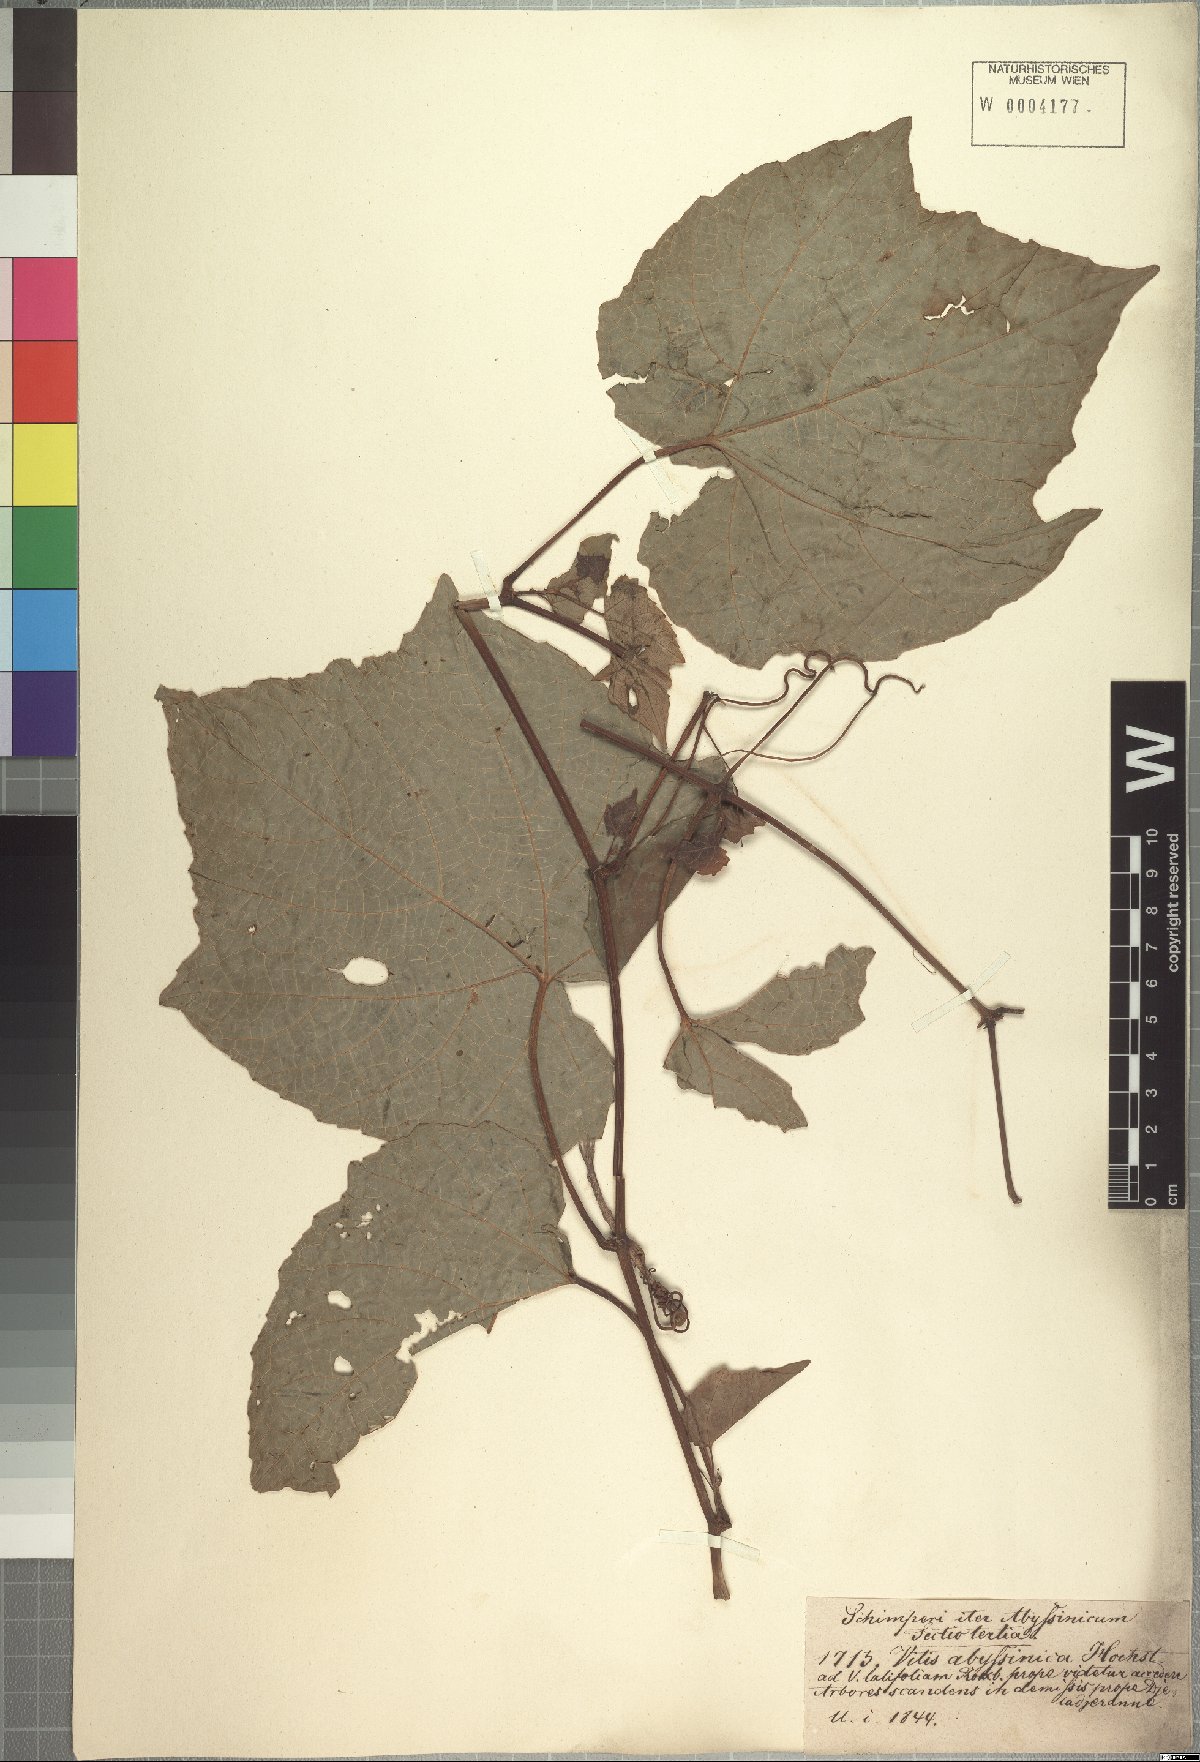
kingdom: Plantae
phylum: Tracheophyta
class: Magnoliopsida
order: Vitales
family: Vitaceae
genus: Ampelocissus
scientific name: Ampelocissus abyssinica
